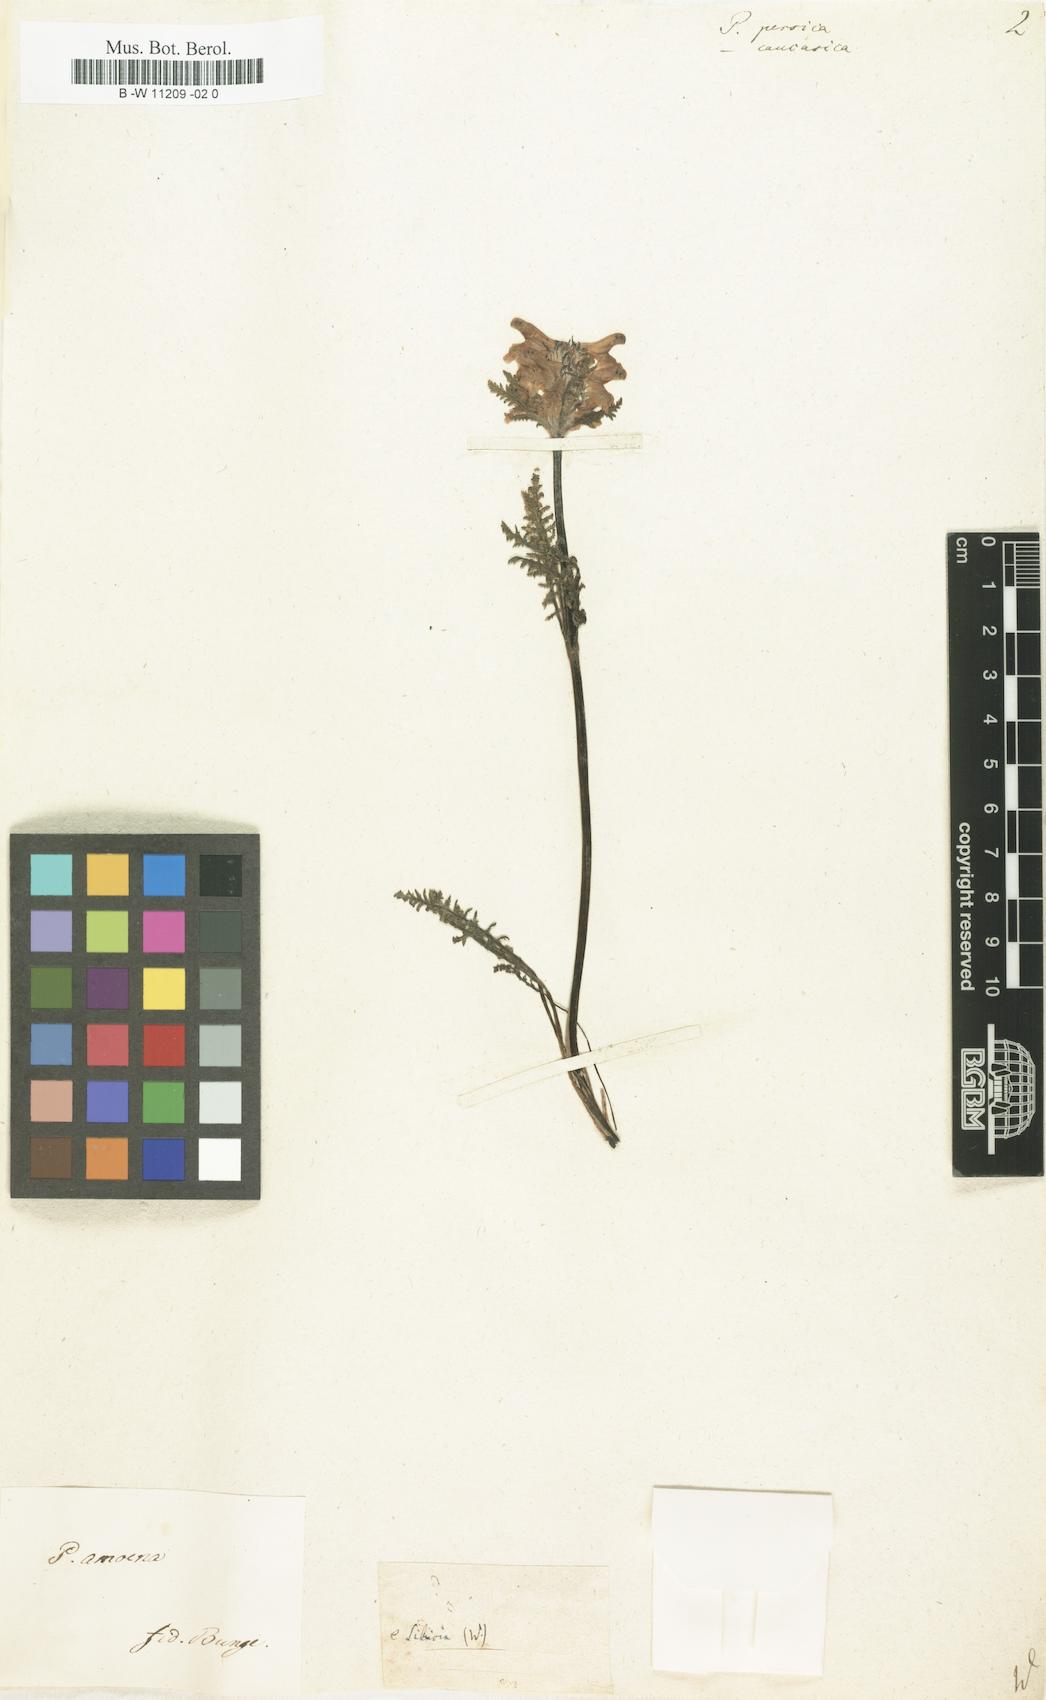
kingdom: Plantae
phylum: Tracheophyta
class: Magnoliopsida
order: Lamiales
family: Orobanchaceae
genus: Pedicularis
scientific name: Pedicularis caucasica
